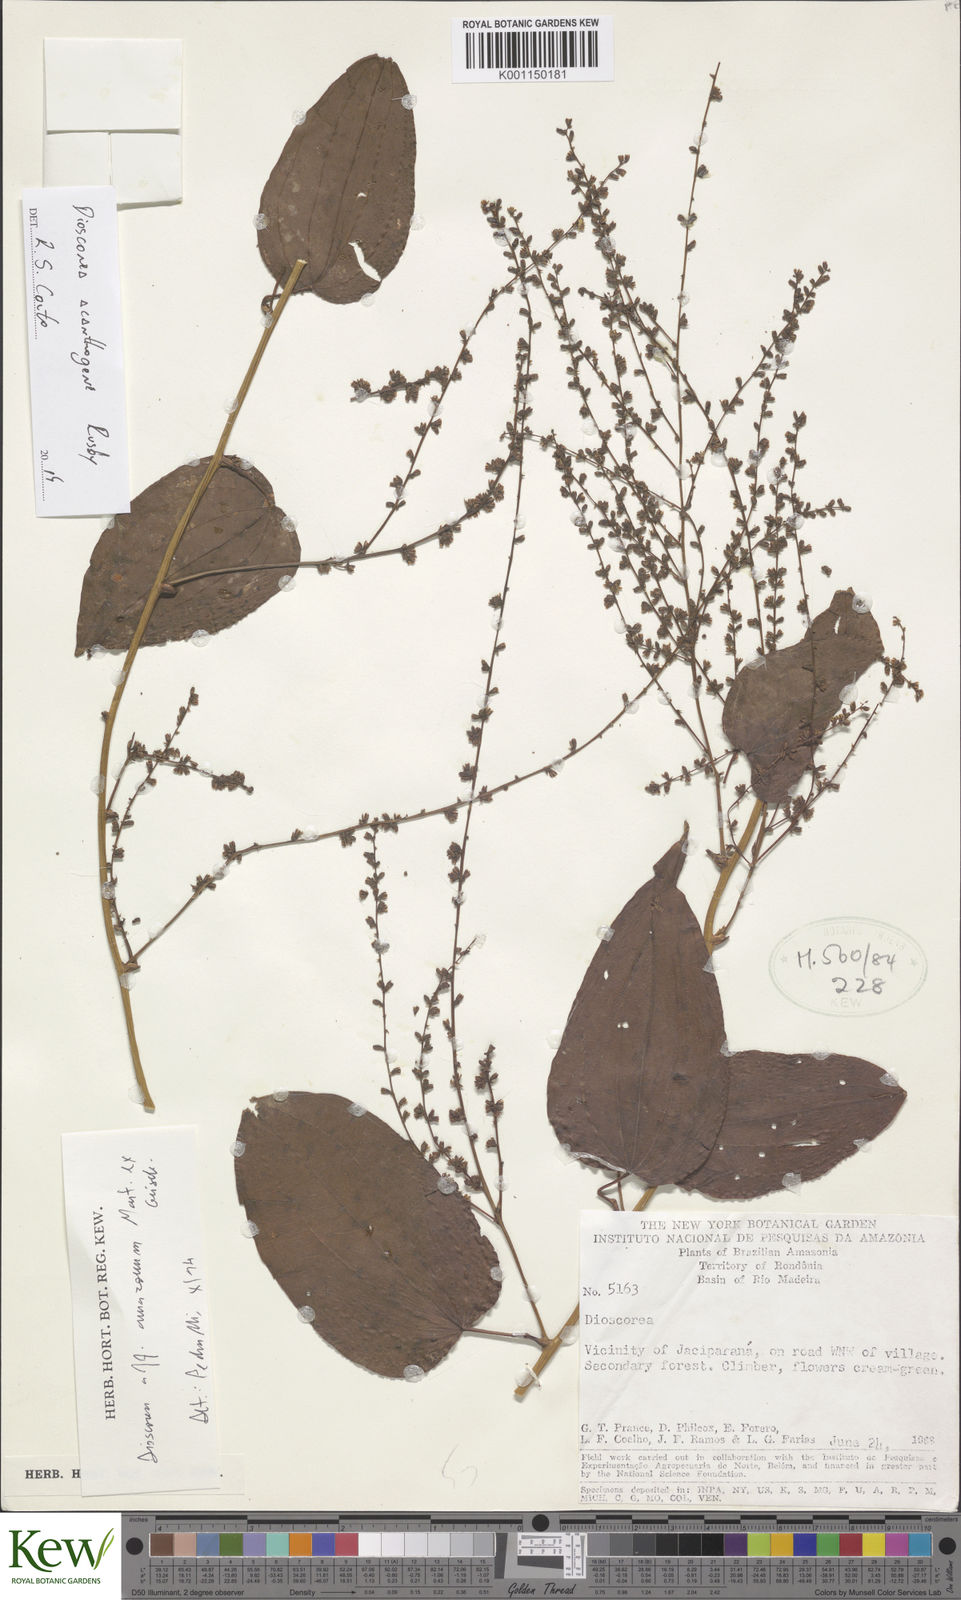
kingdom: Plantae
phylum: Tracheophyta
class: Liliopsida
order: Dioscoreales
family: Dioscoreaceae
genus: Dioscorea
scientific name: Dioscorea acanthogene
